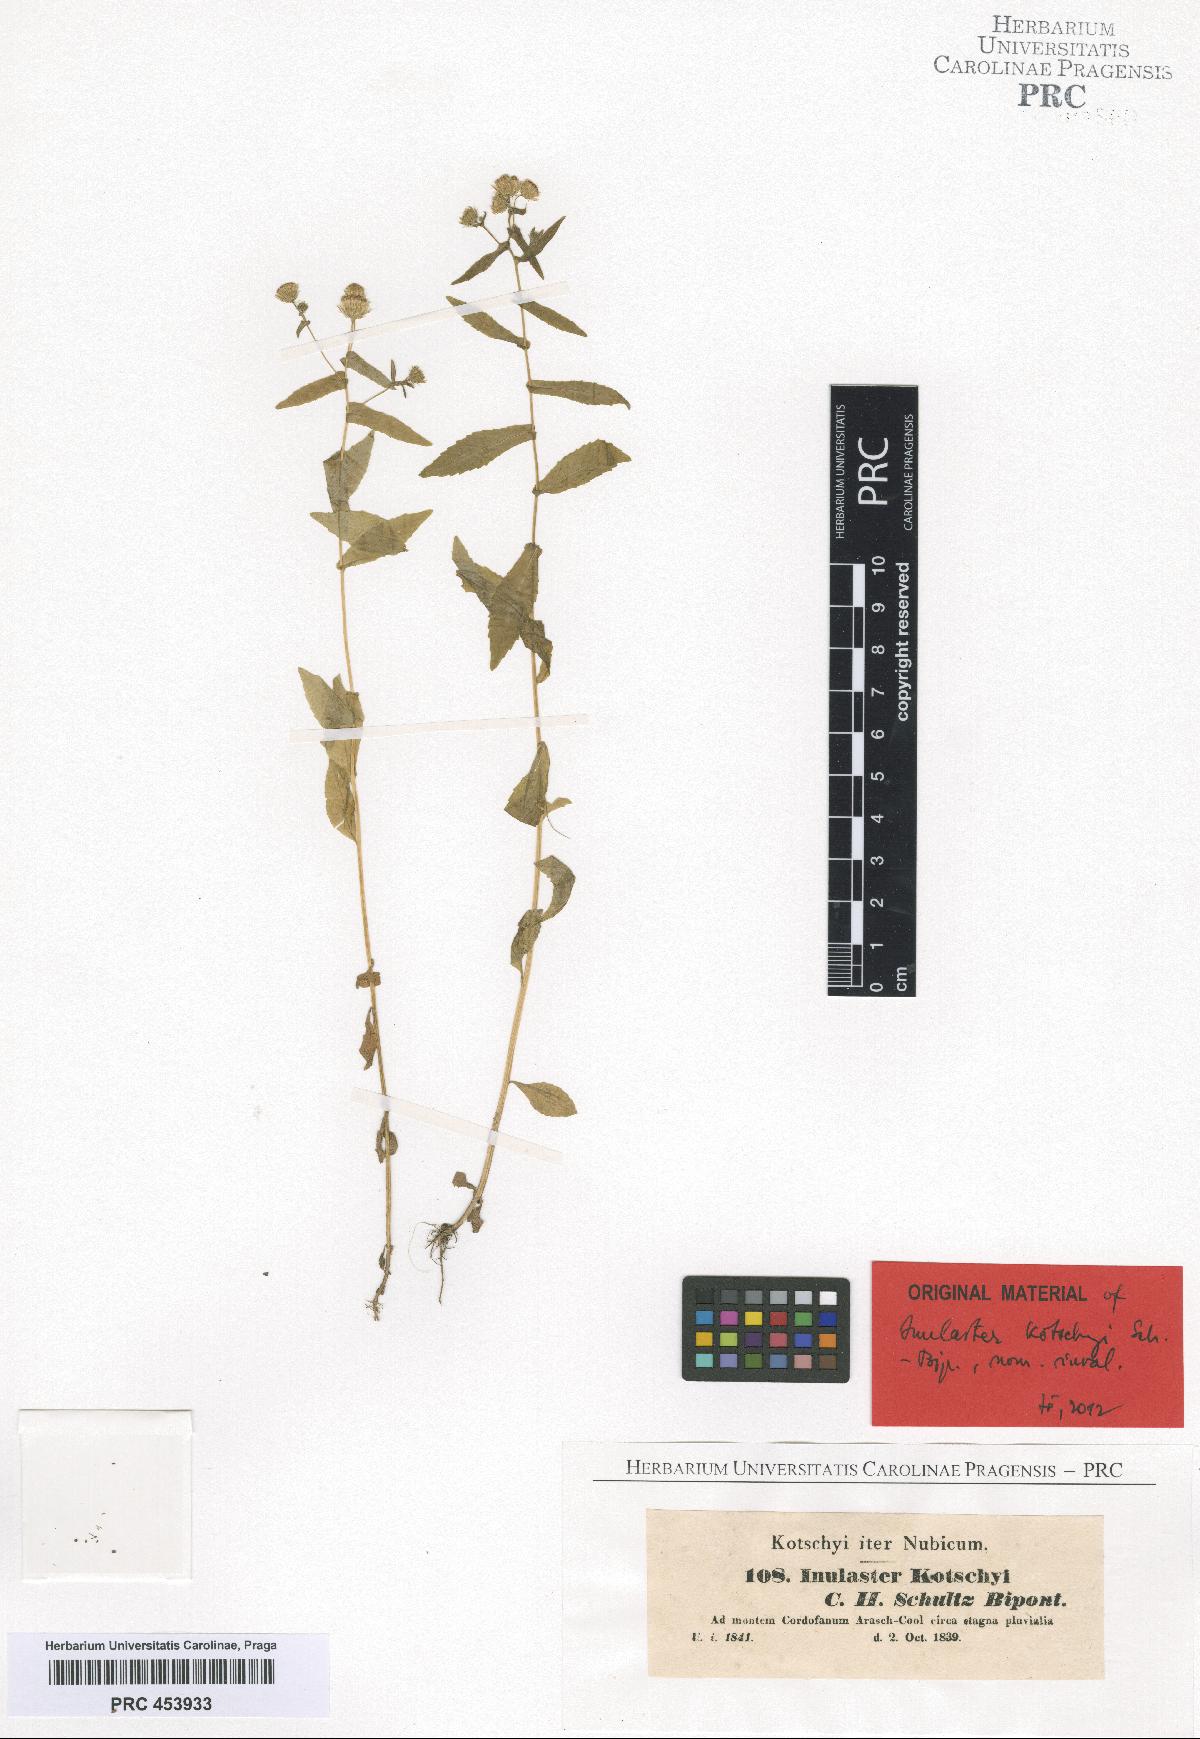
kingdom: Plantae
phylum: Tracheophyta
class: Magnoliopsida
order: Asterales
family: Asteraceae
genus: Vicoa
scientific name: Vicoa indica
